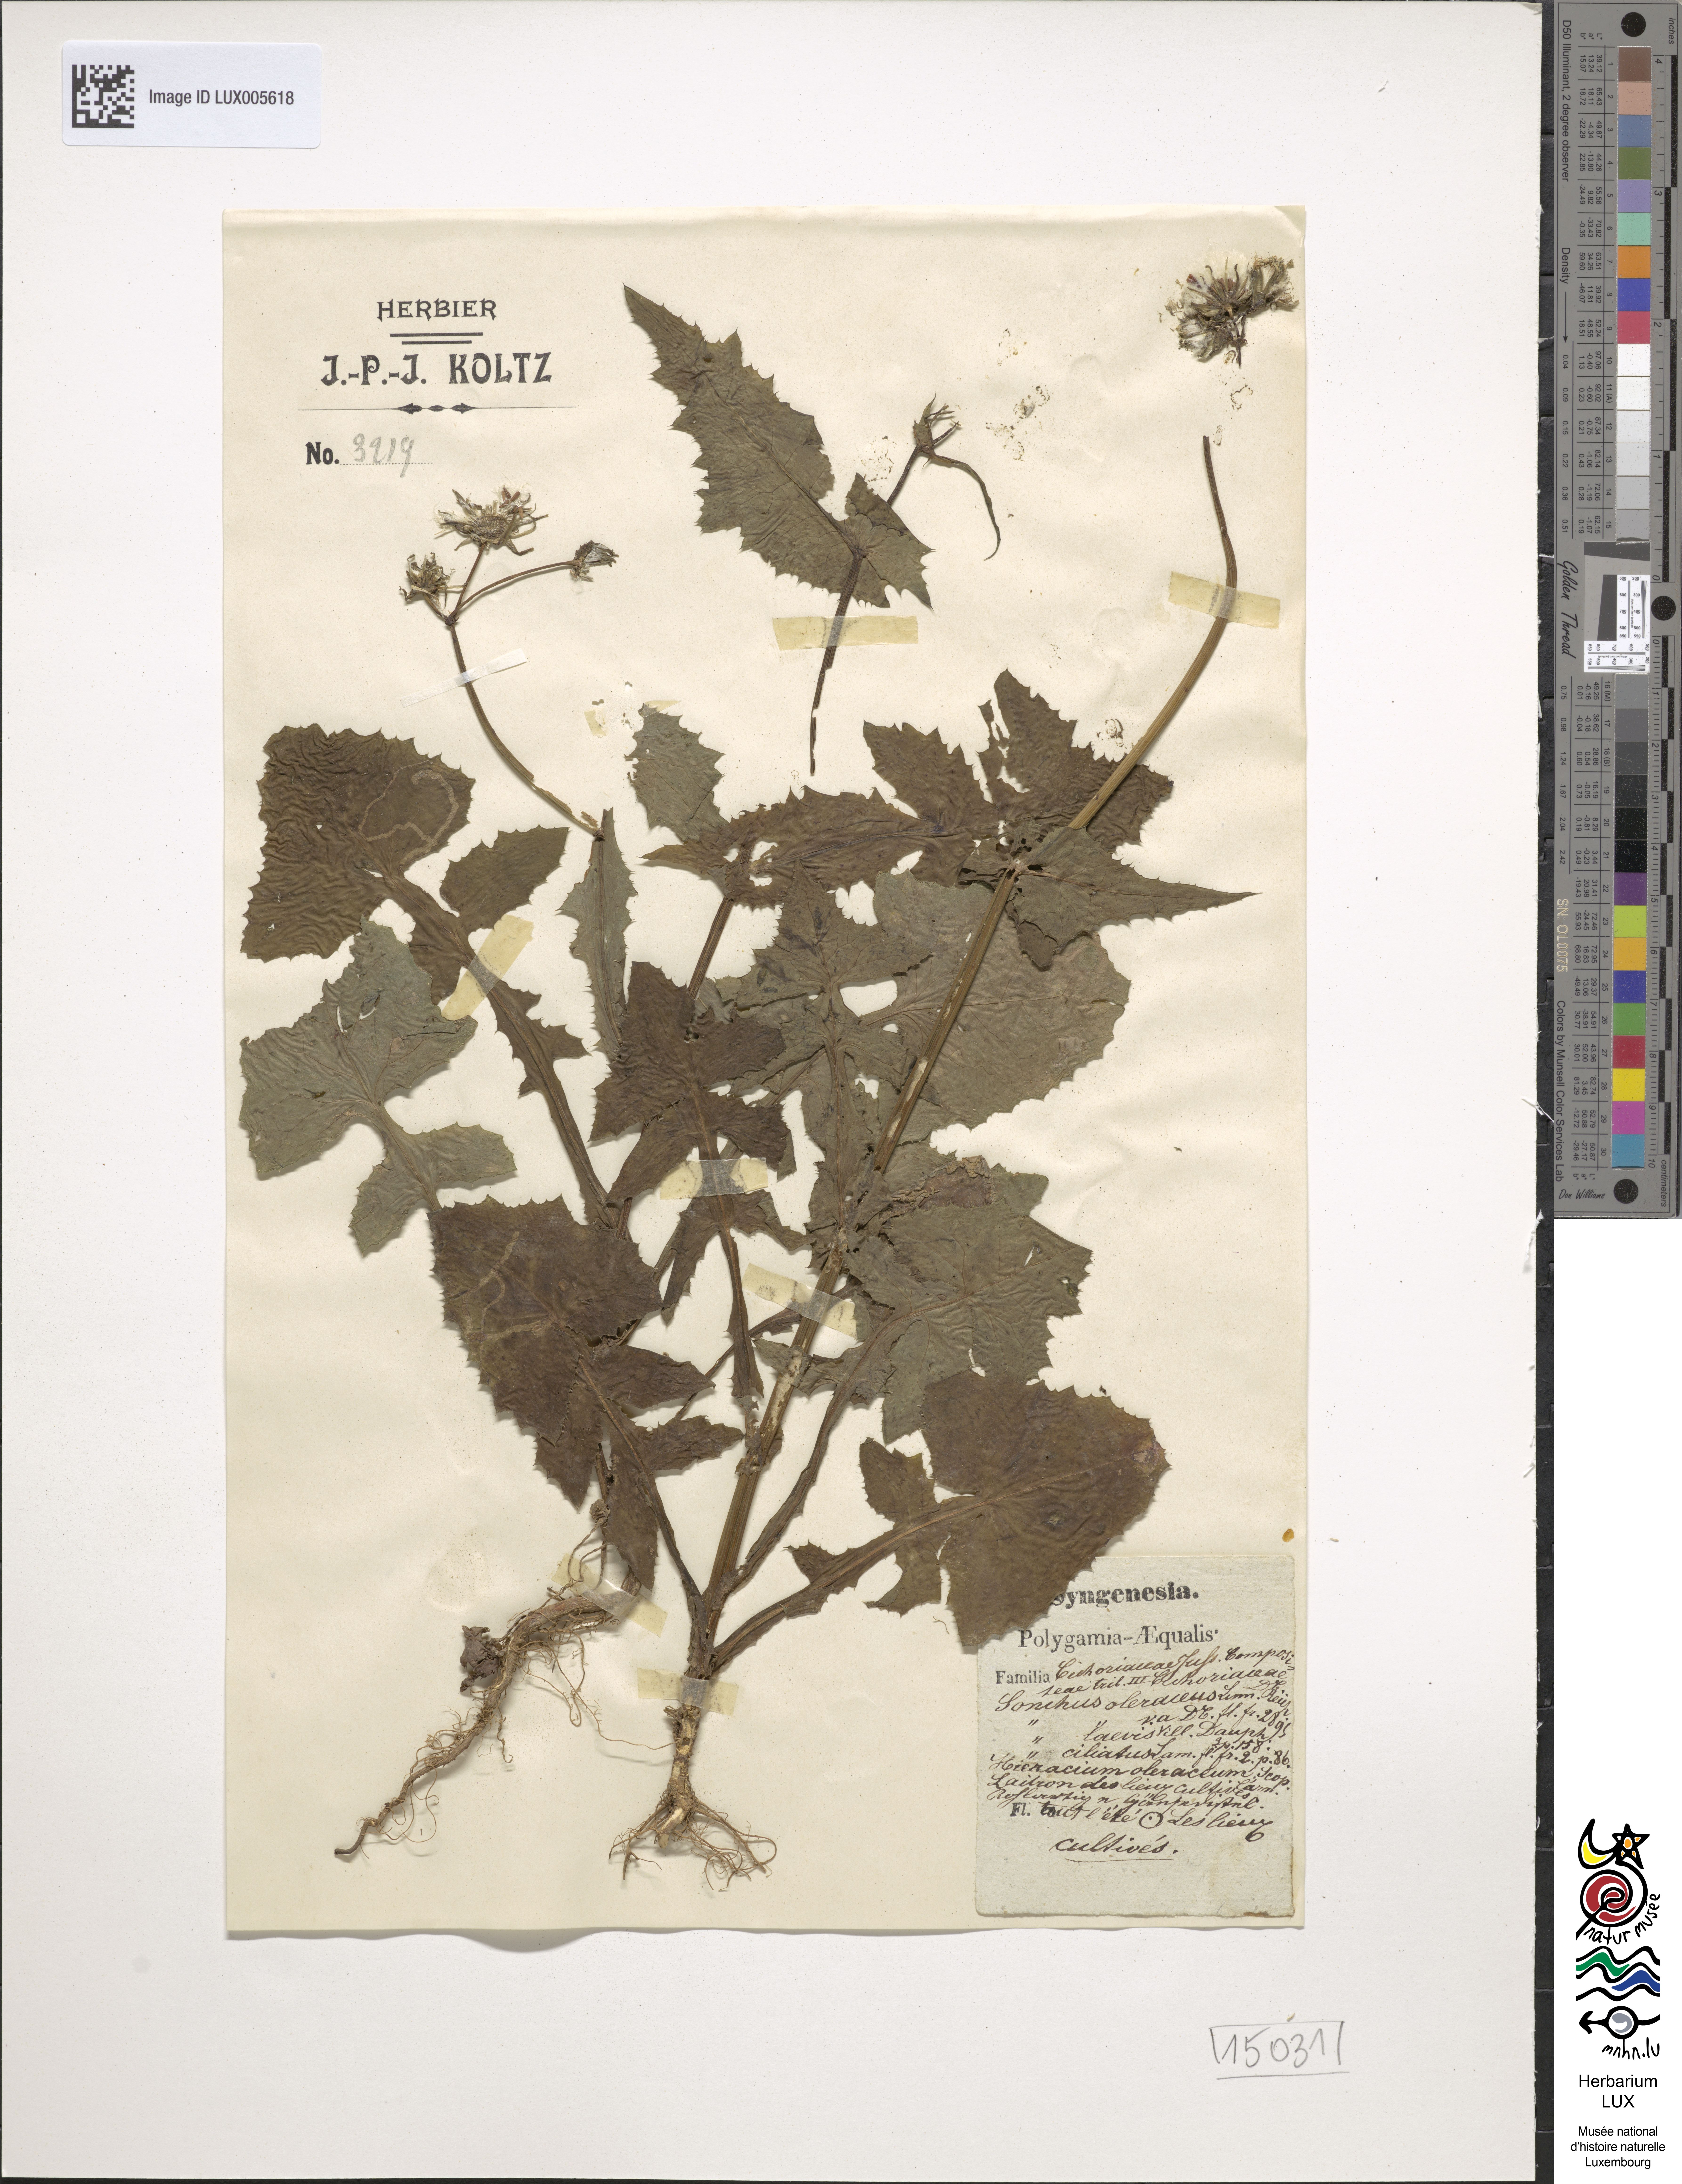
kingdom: Plantae
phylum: Tracheophyta
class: Magnoliopsida
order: Asterales
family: Asteraceae
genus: Sonchus
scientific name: Sonchus oleraceus
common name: Common sowthistle
